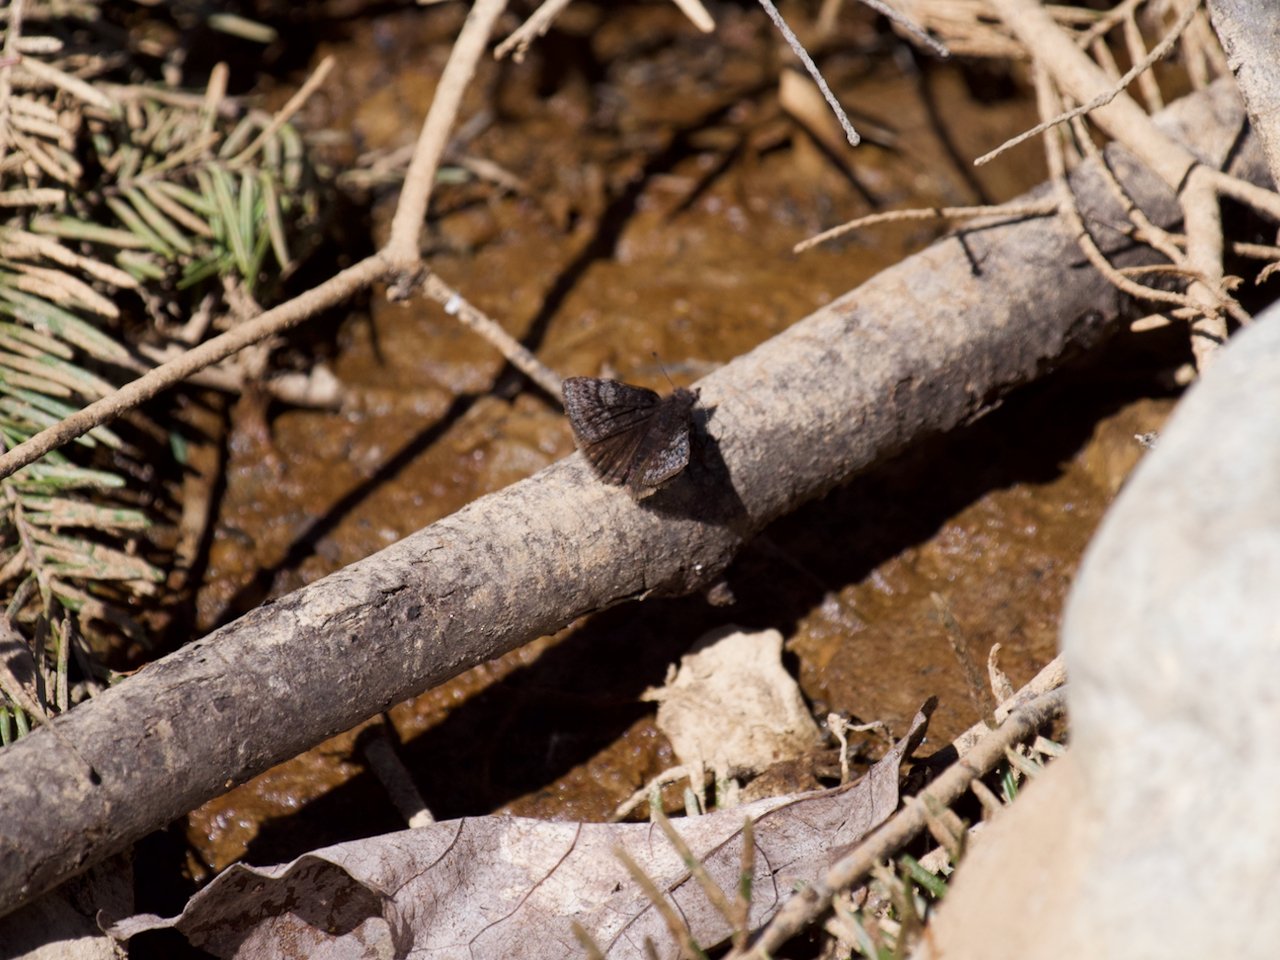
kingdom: Animalia
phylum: Arthropoda
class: Insecta
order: Lepidoptera
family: Hesperiidae
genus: Erynnis
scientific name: Erynnis icelus
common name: Dreamy Duskywing
